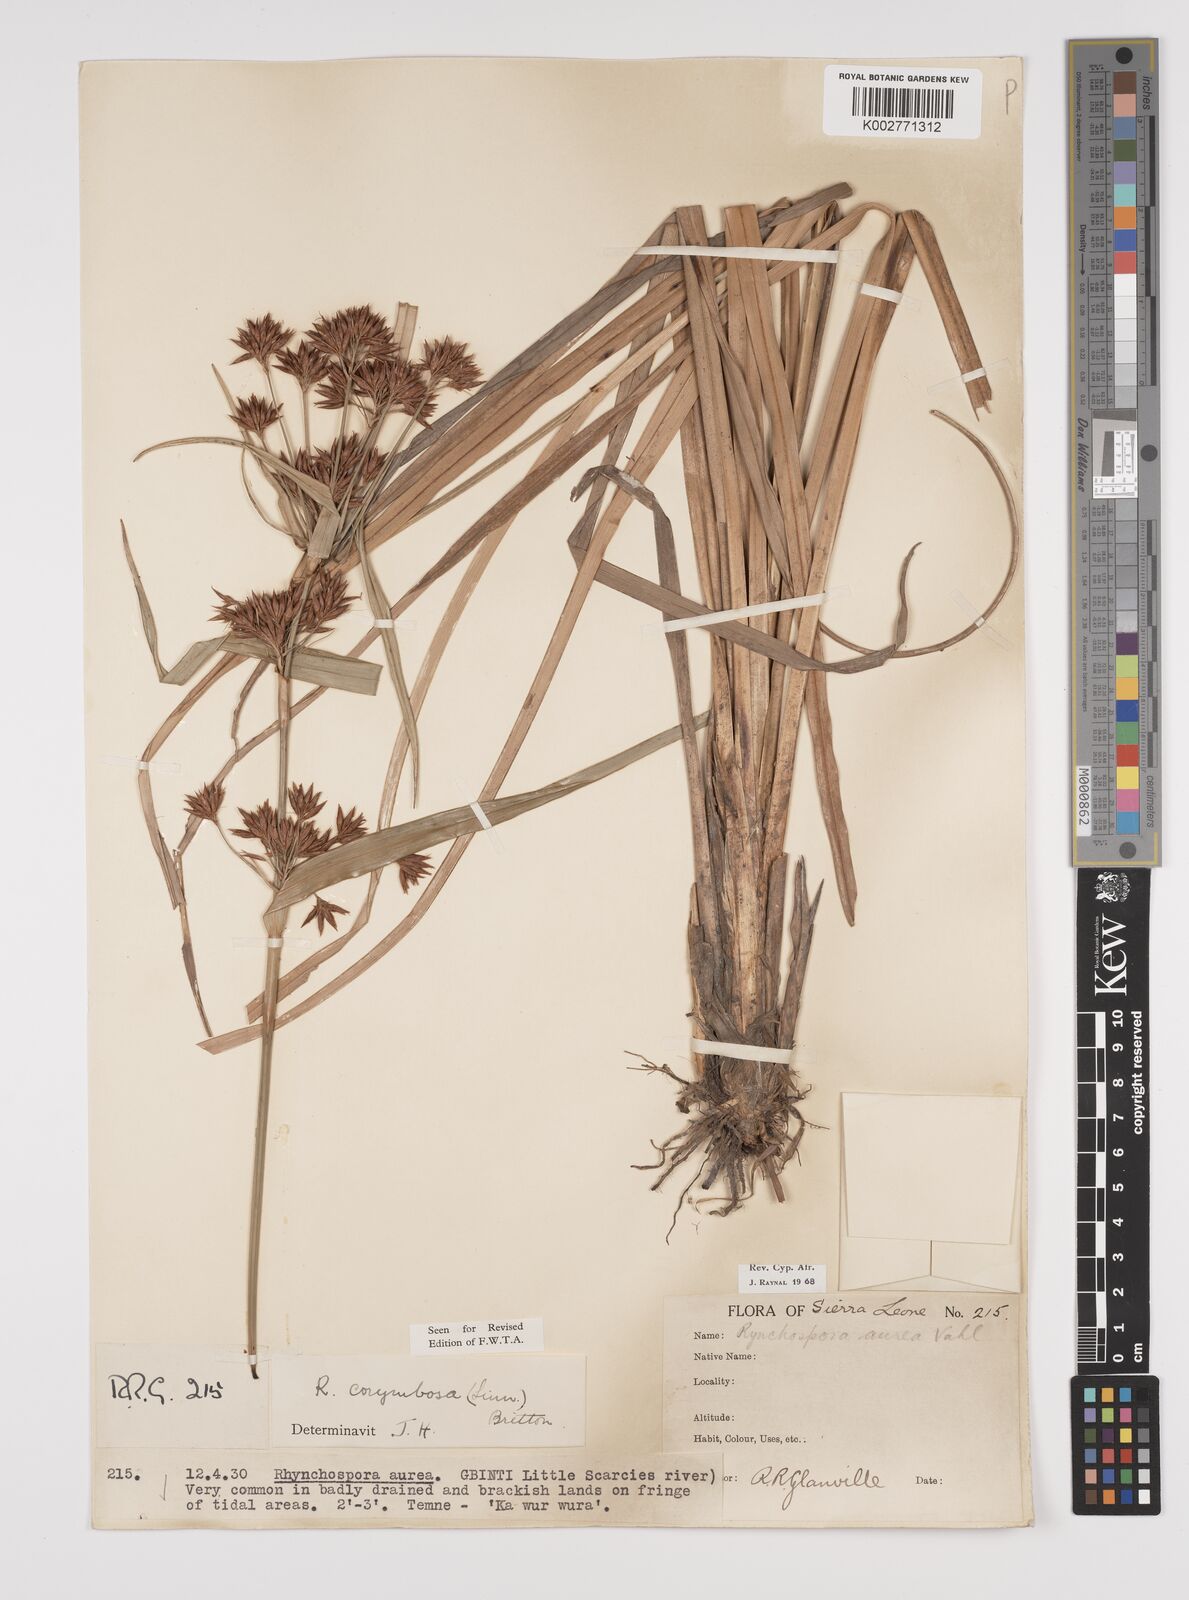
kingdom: Plantae
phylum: Tracheophyta
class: Liliopsida
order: Poales
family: Cyperaceae
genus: Rhynchospora
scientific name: Rhynchospora corymbosa
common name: Golden beak sedge
